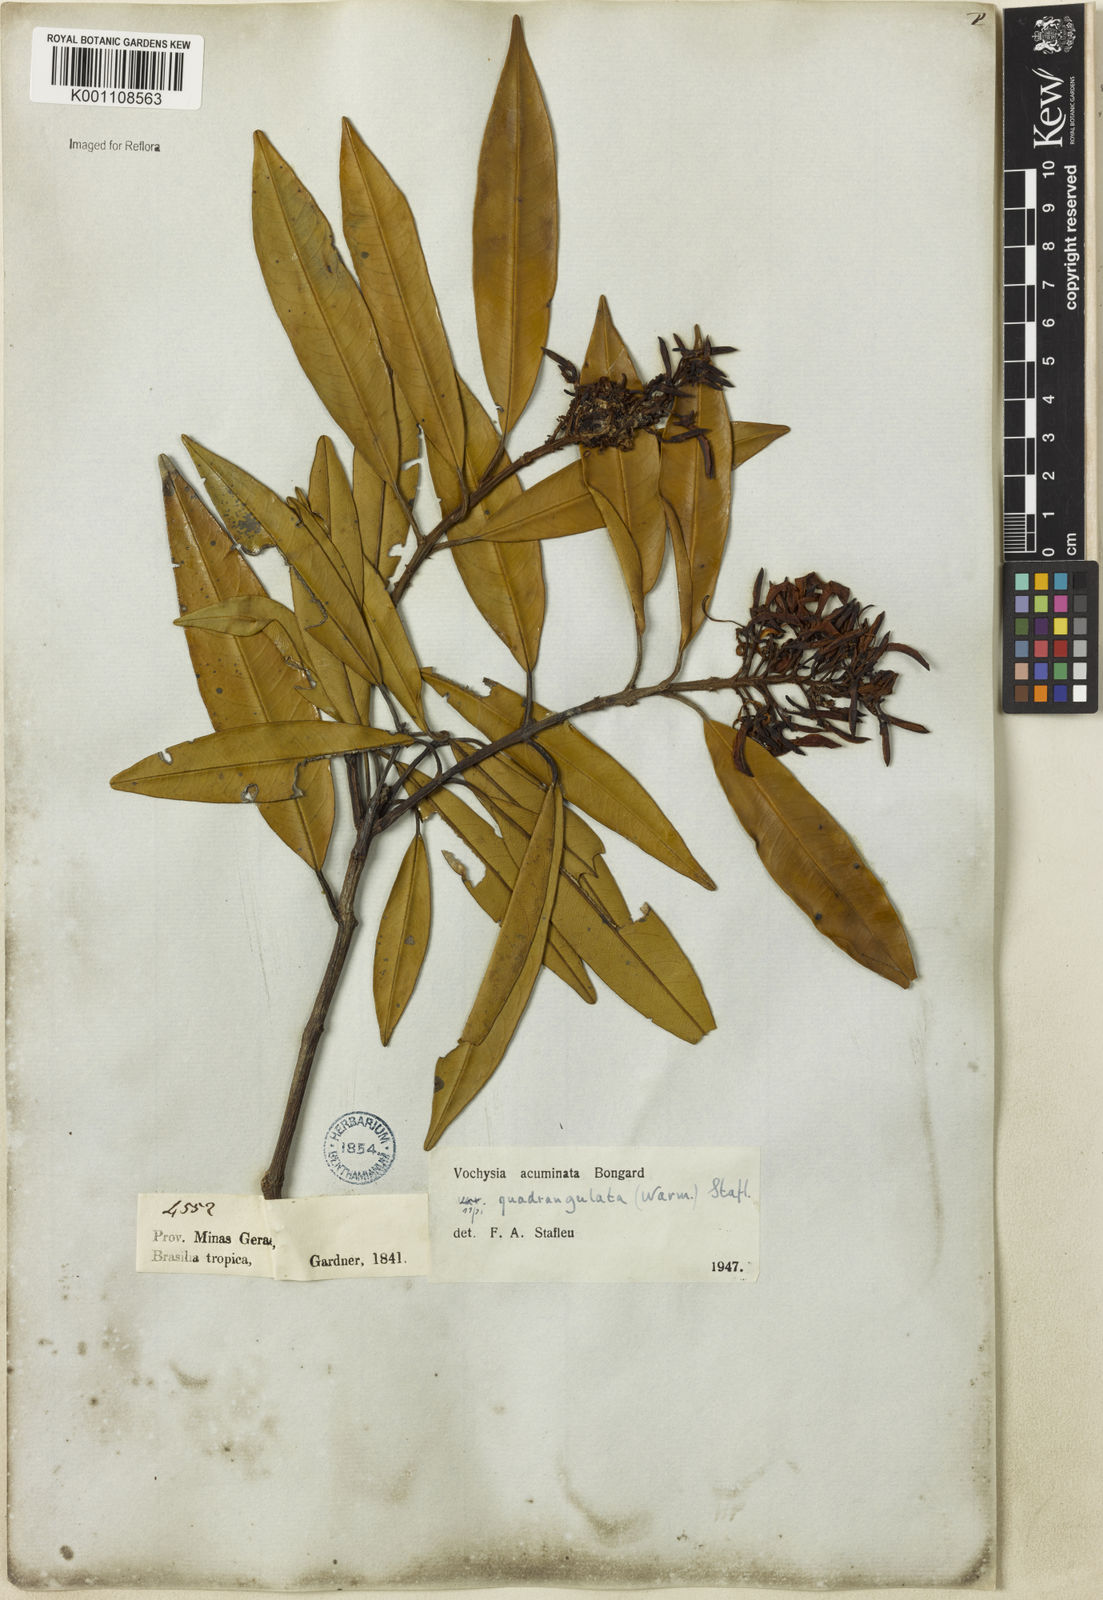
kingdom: Plantae
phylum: Tracheophyta
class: Magnoliopsida
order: Myrtales
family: Vochysiaceae
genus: Vochysia
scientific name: Vochysia acuminata
